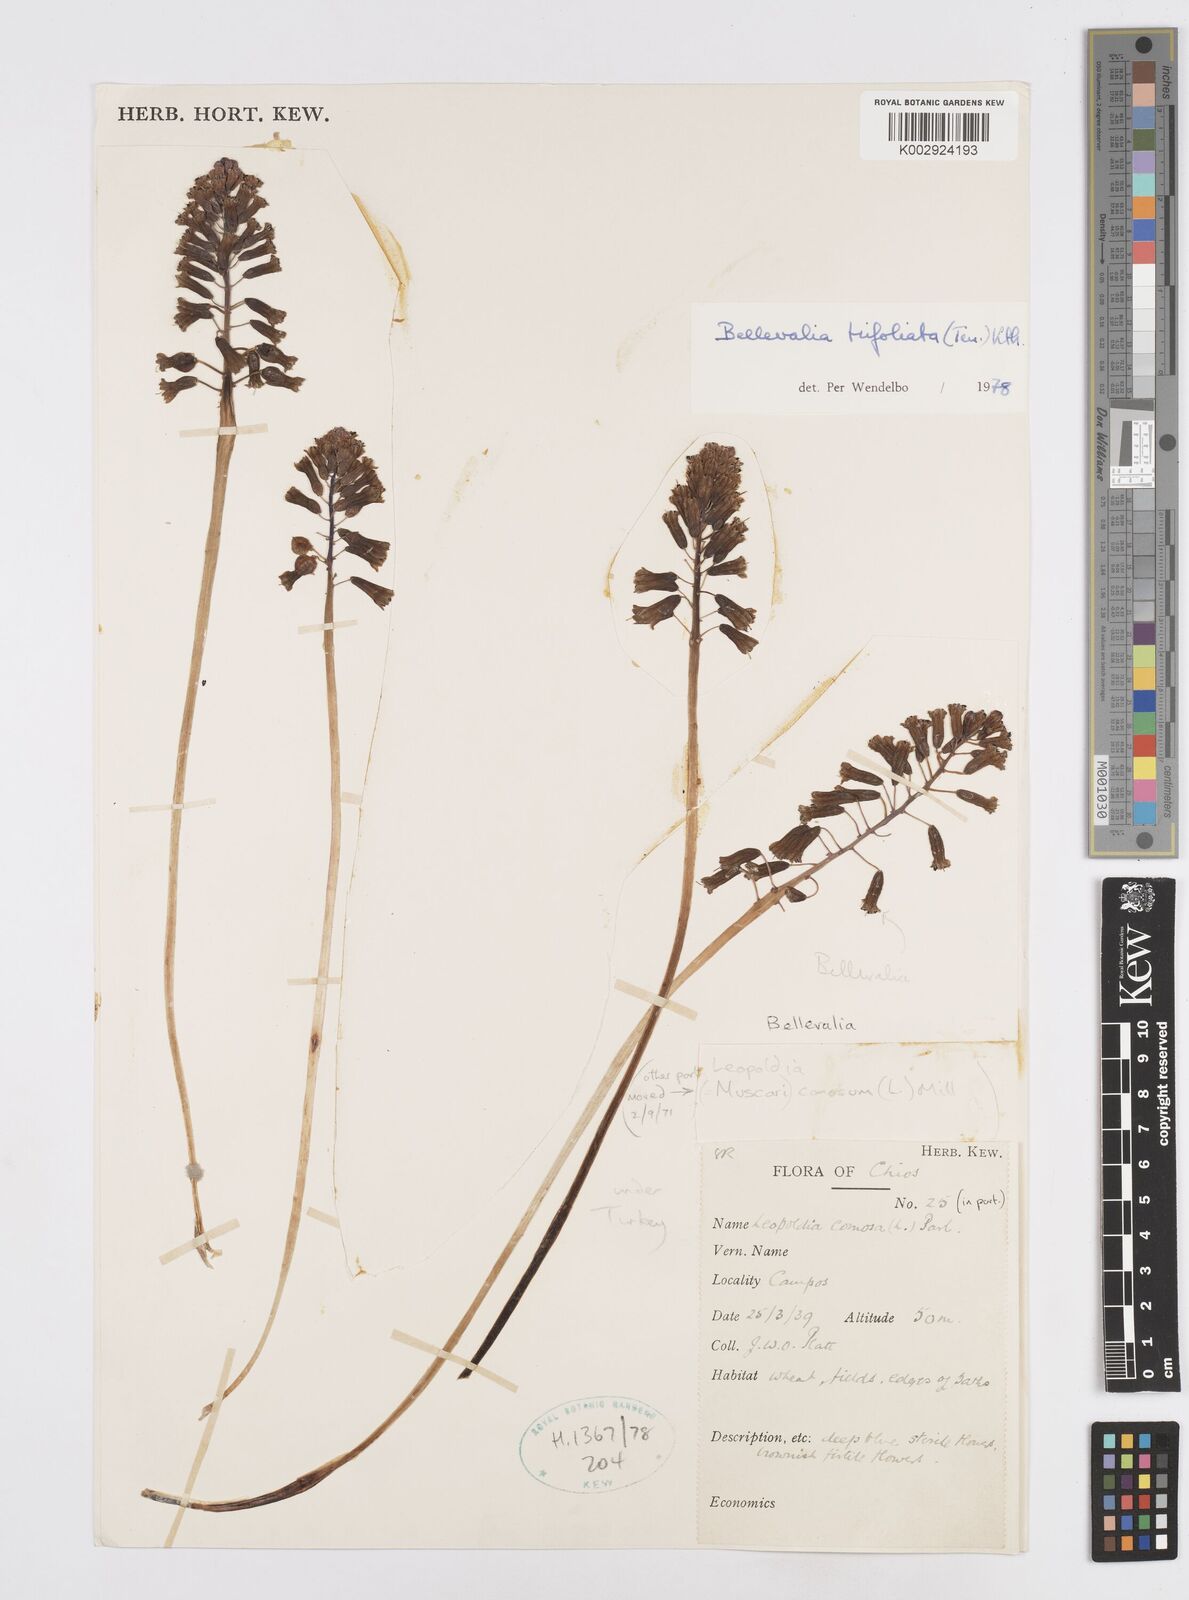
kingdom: Plantae
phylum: Tracheophyta
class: Liliopsida
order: Asparagales
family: Asparagaceae
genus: Bellevalia
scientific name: Bellevalia trifoliata
